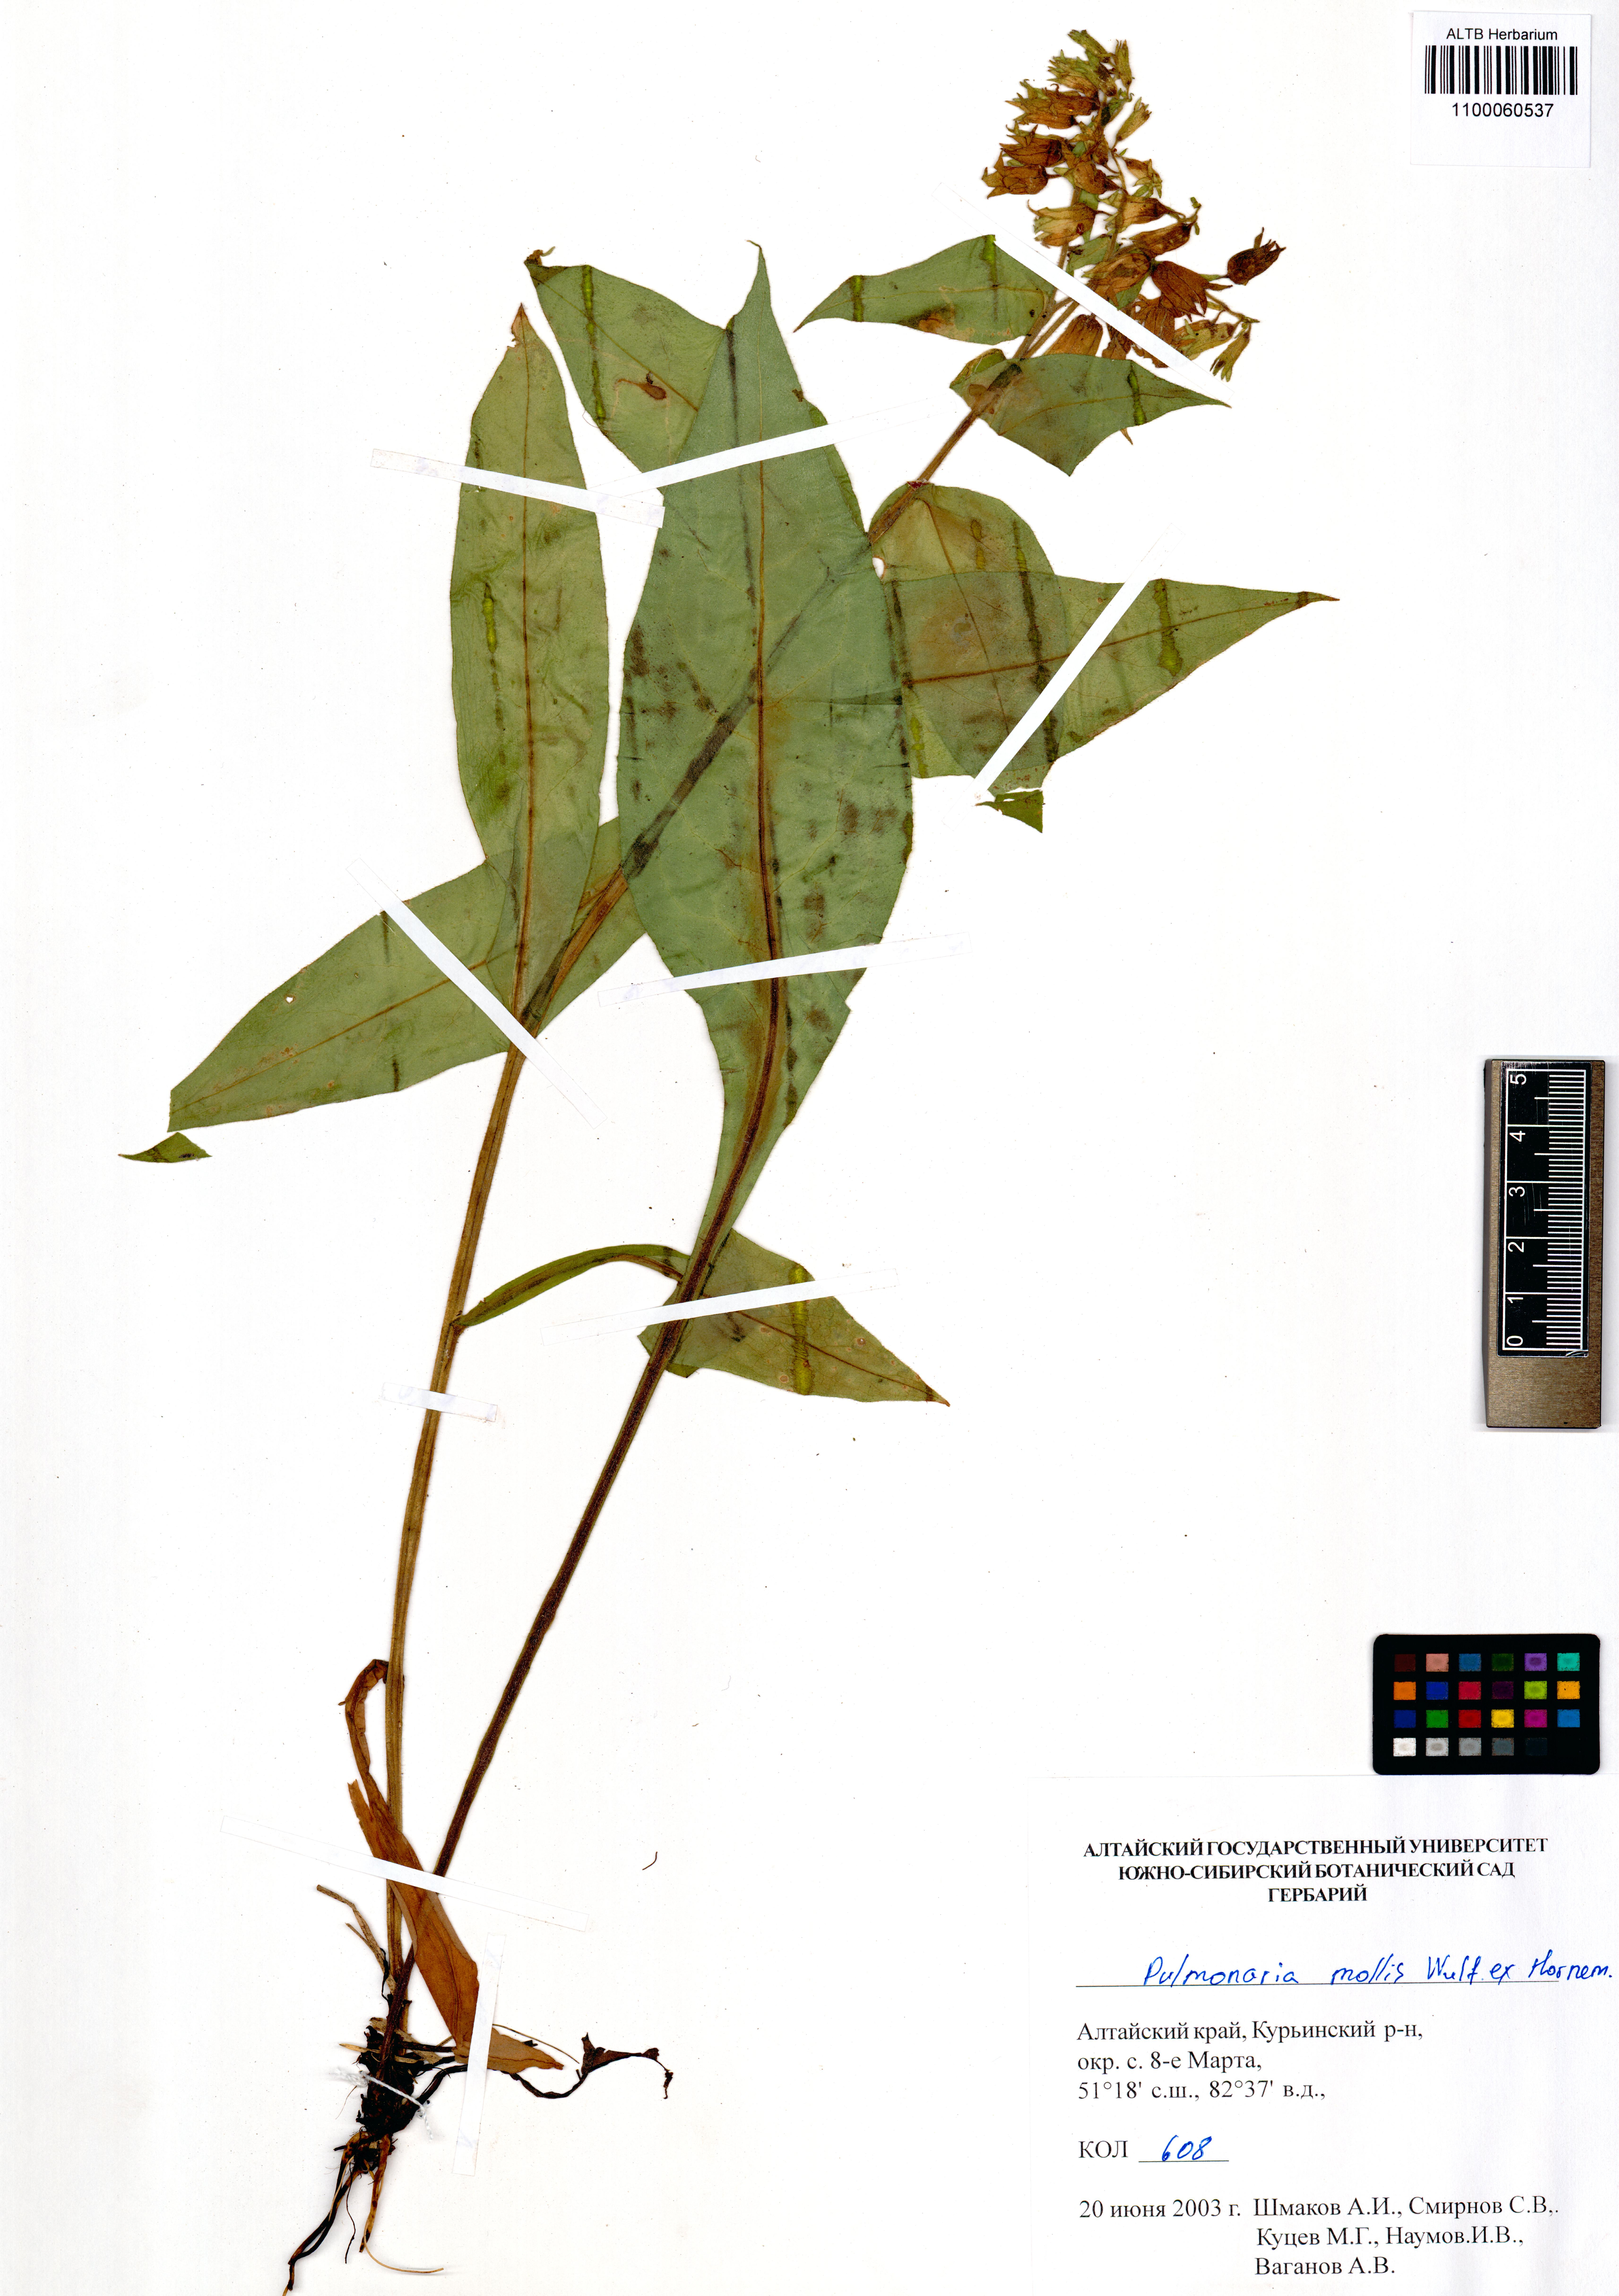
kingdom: Plantae
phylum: Tracheophyta
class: Magnoliopsida
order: Boraginales
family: Boraginaceae
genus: Pulmonaria
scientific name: Pulmonaria mollis
